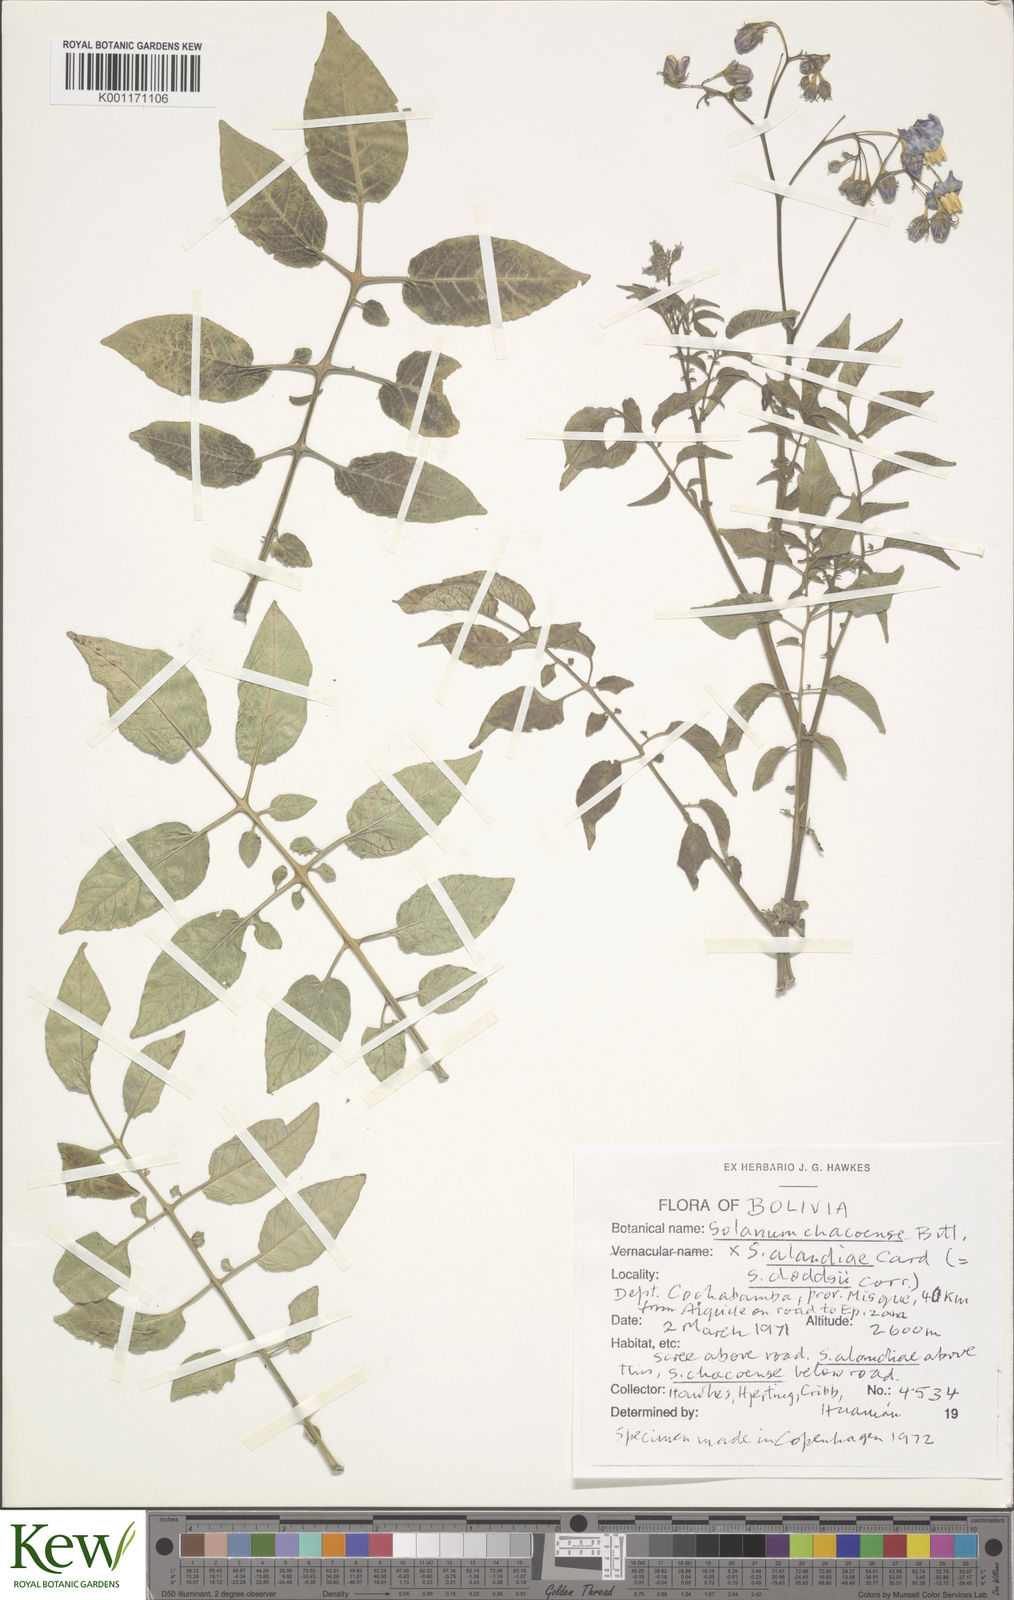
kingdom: Plantae
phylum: Tracheophyta
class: Magnoliopsida
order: Solanales
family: Solanaceae
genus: Solanum
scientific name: Solanum chacoense
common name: Chaco potato
